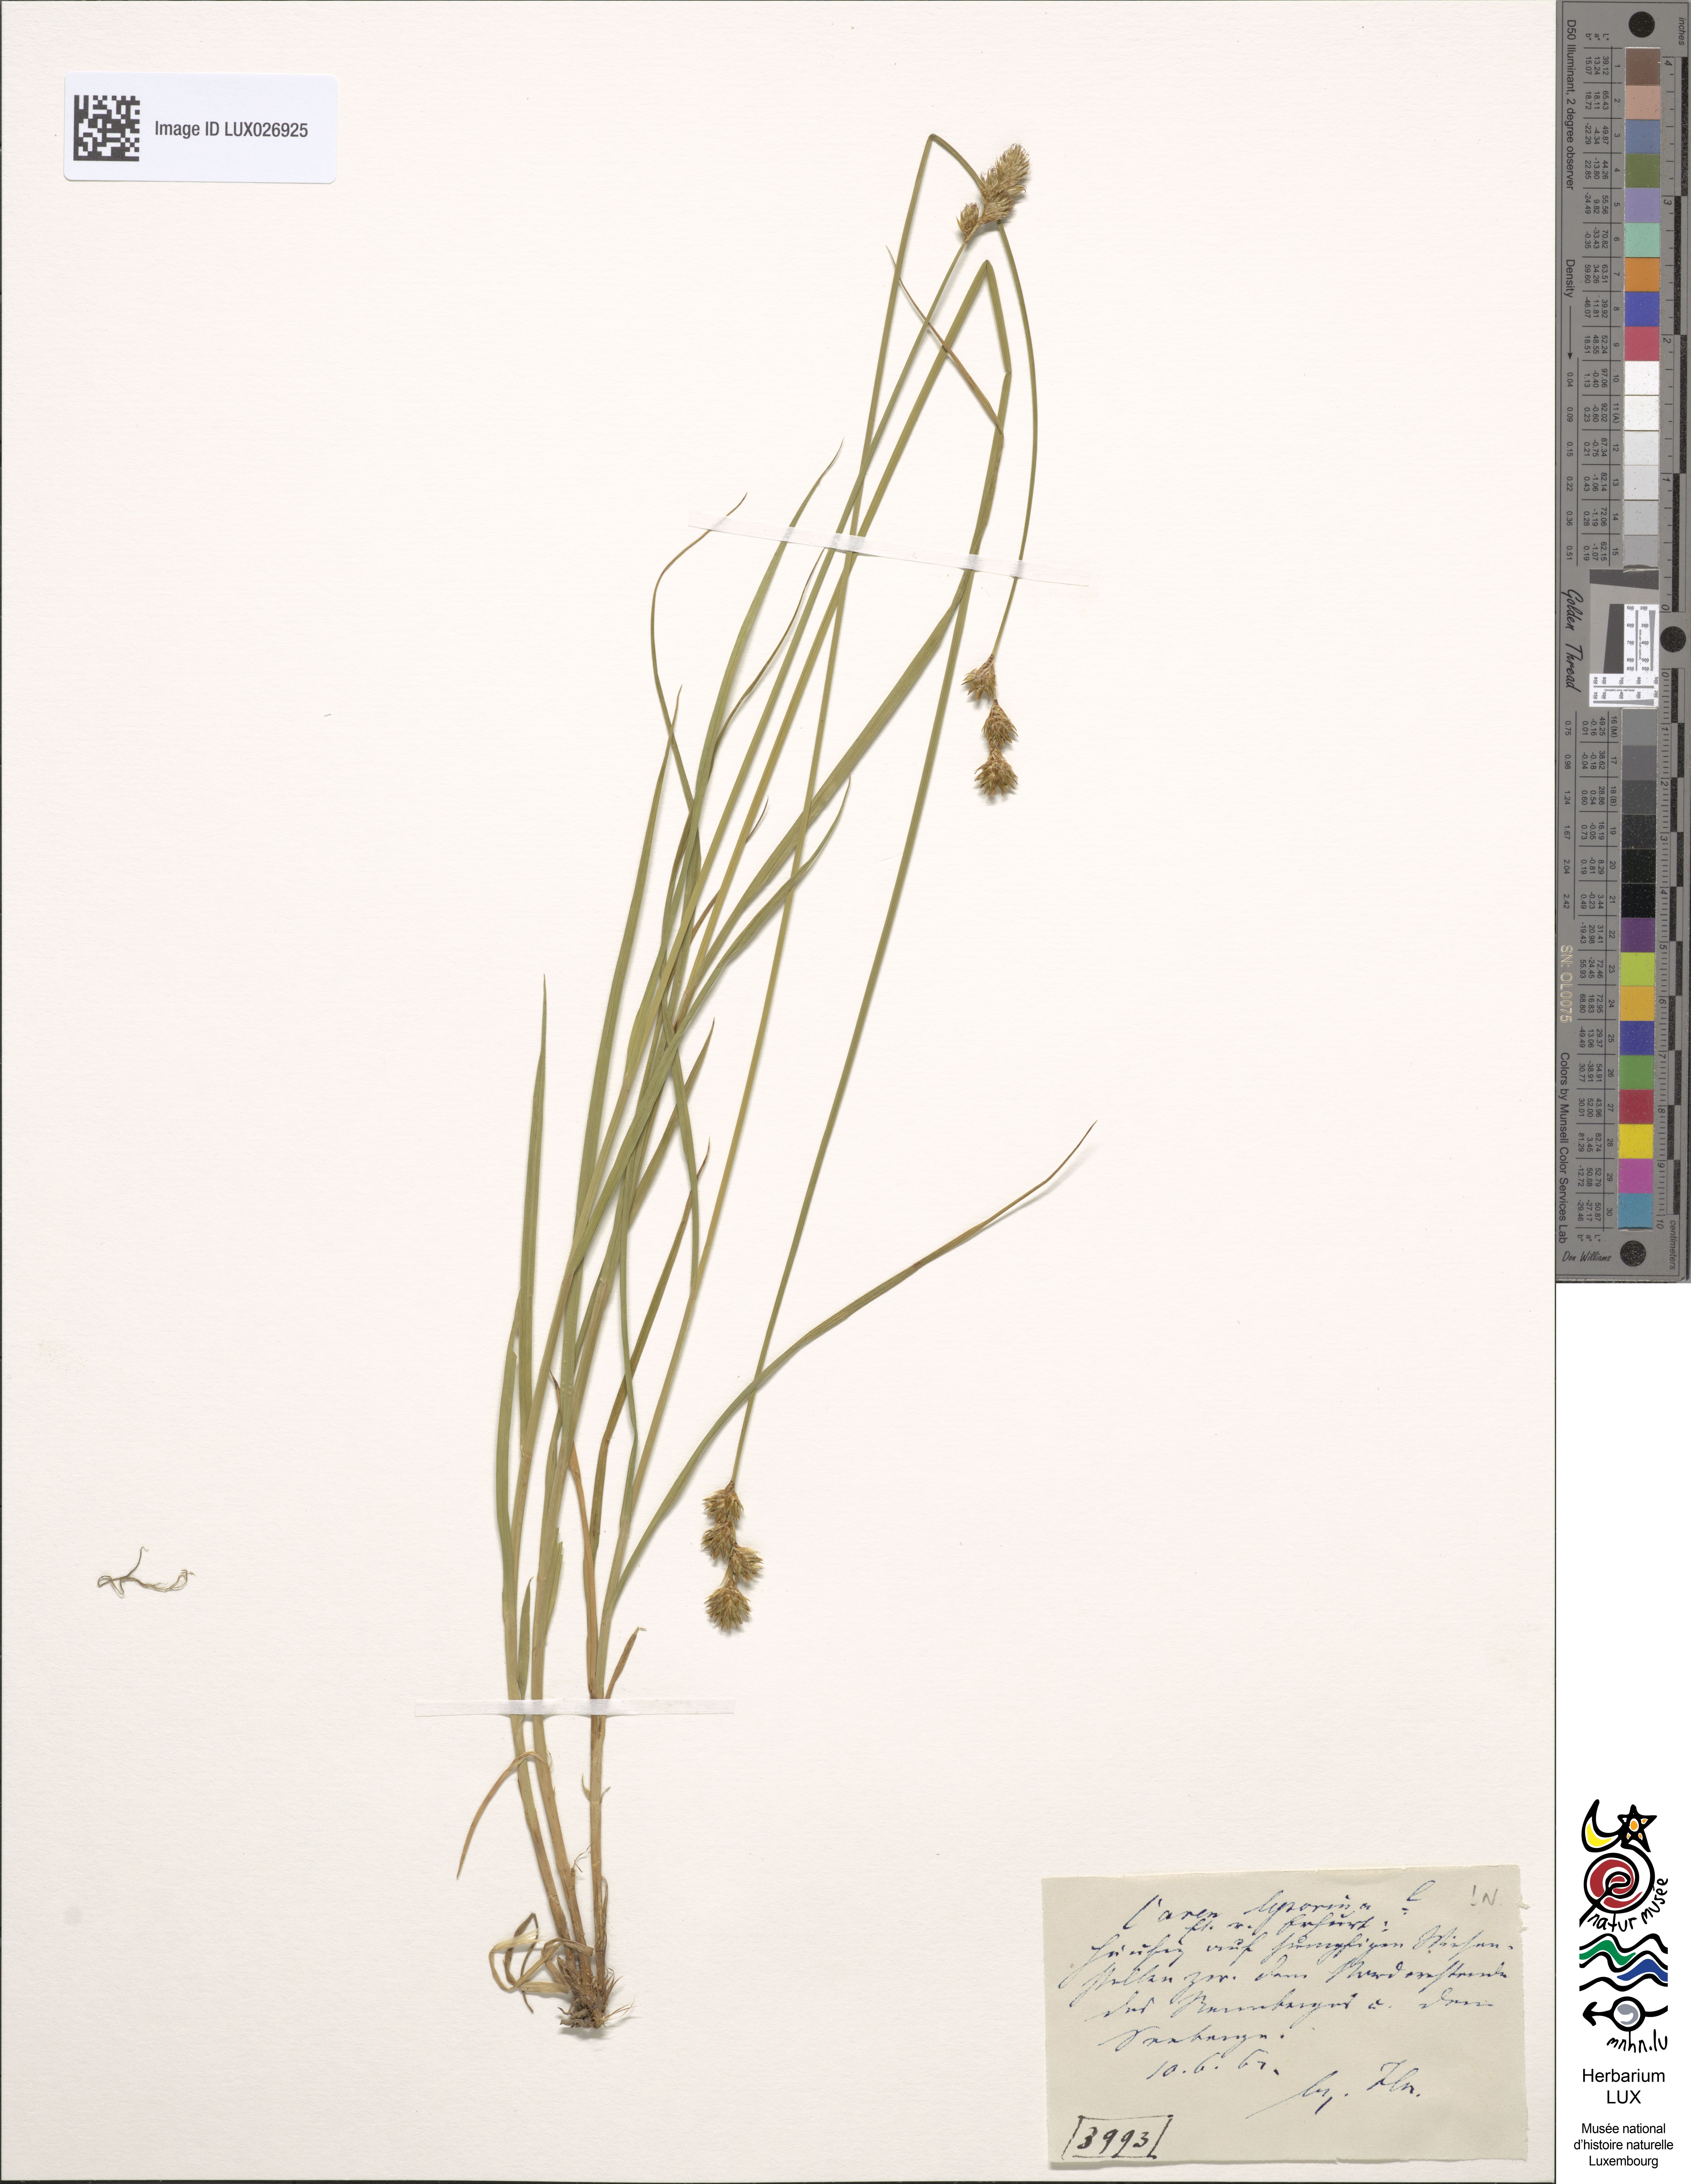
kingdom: Plantae
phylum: Tracheophyta
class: Liliopsida
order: Poales
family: Cyperaceae
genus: Carex
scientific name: Carex leporina
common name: Oval sedge
